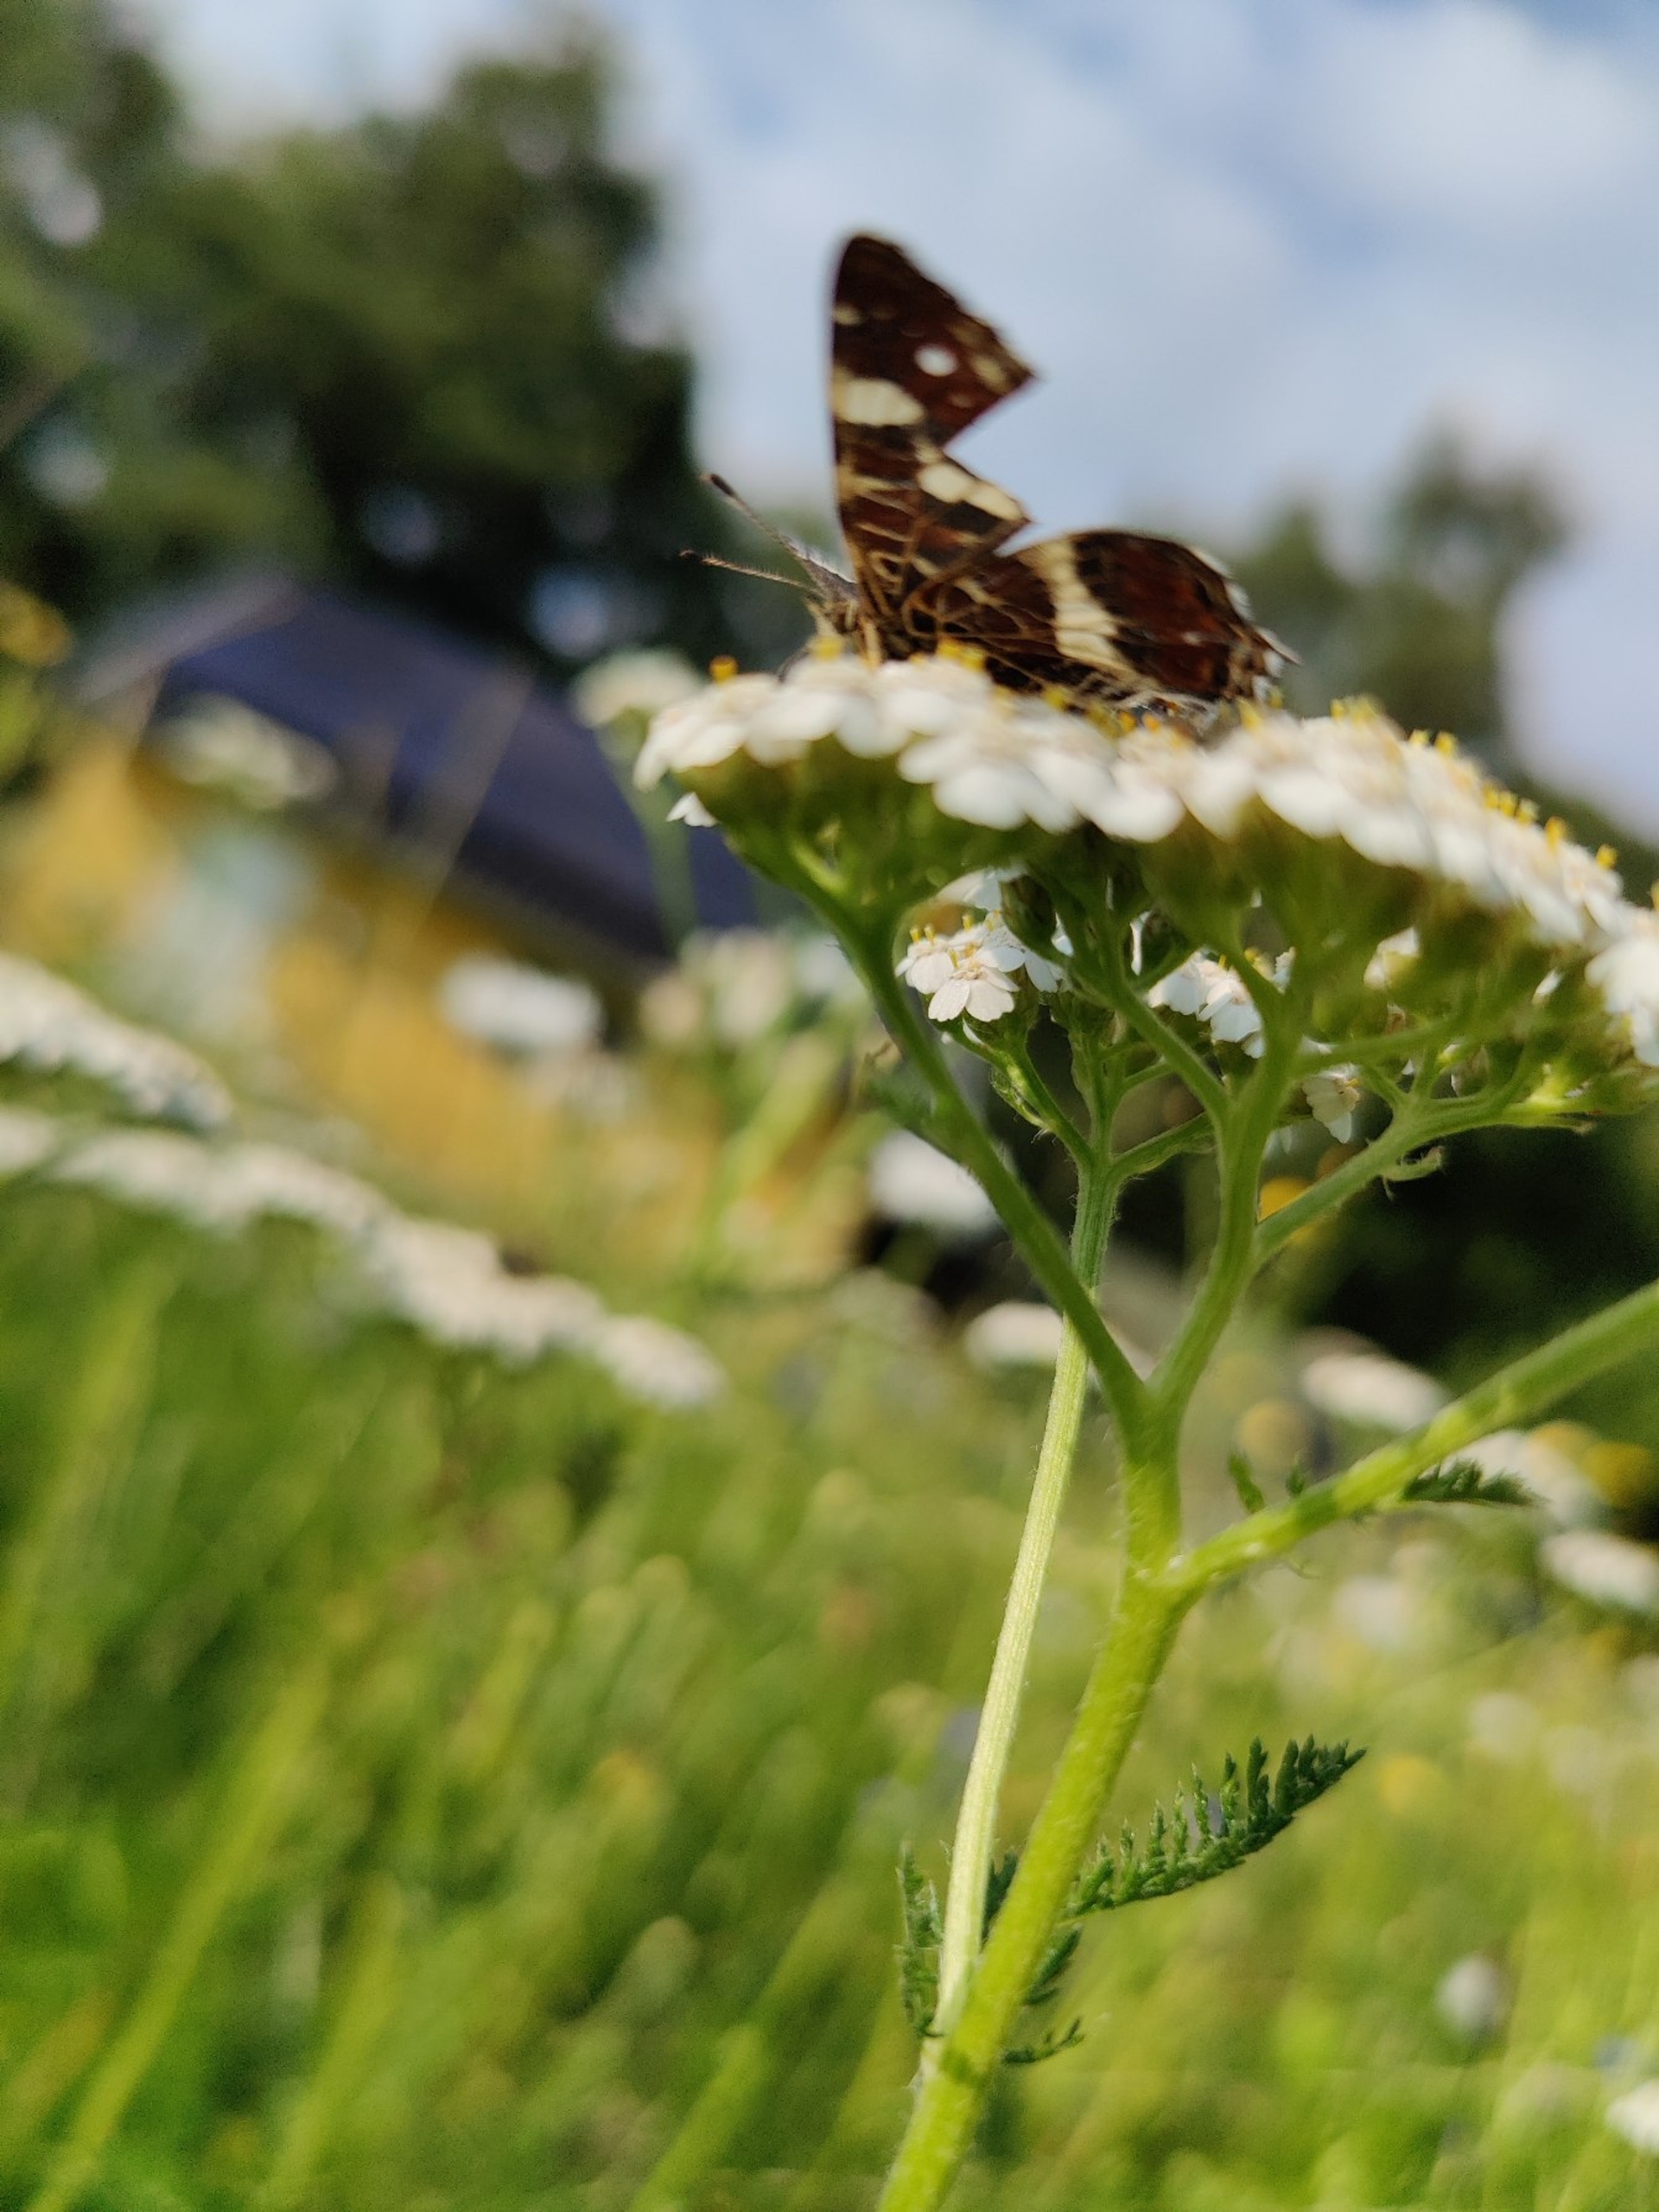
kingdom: Animalia
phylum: Arthropoda
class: Insecta
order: Lepidoptera
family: Nymphalidae
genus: Araschnia
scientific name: Araschnia levana
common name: Nældesommerfugl
